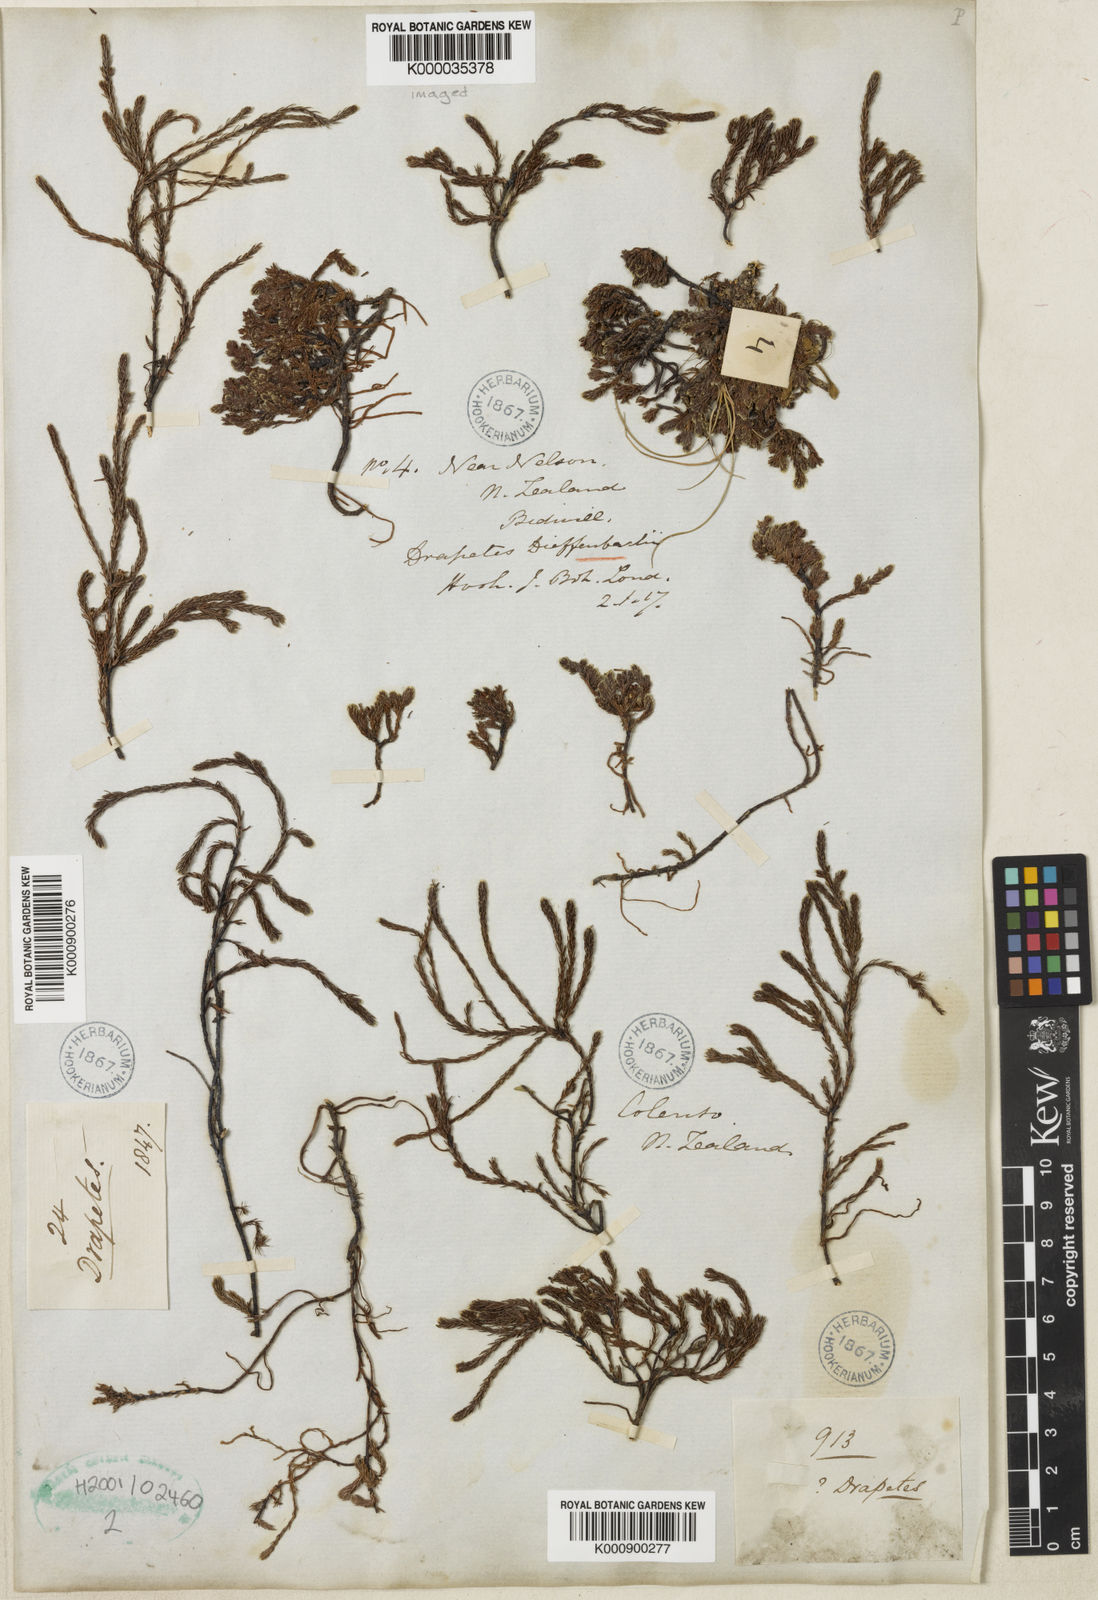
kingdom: Plantae
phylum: Tracheophyta
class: Magnoliopsida
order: Malvales
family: Thymelaeaceae
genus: Kelleria
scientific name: Kelleria dieffenbachii
